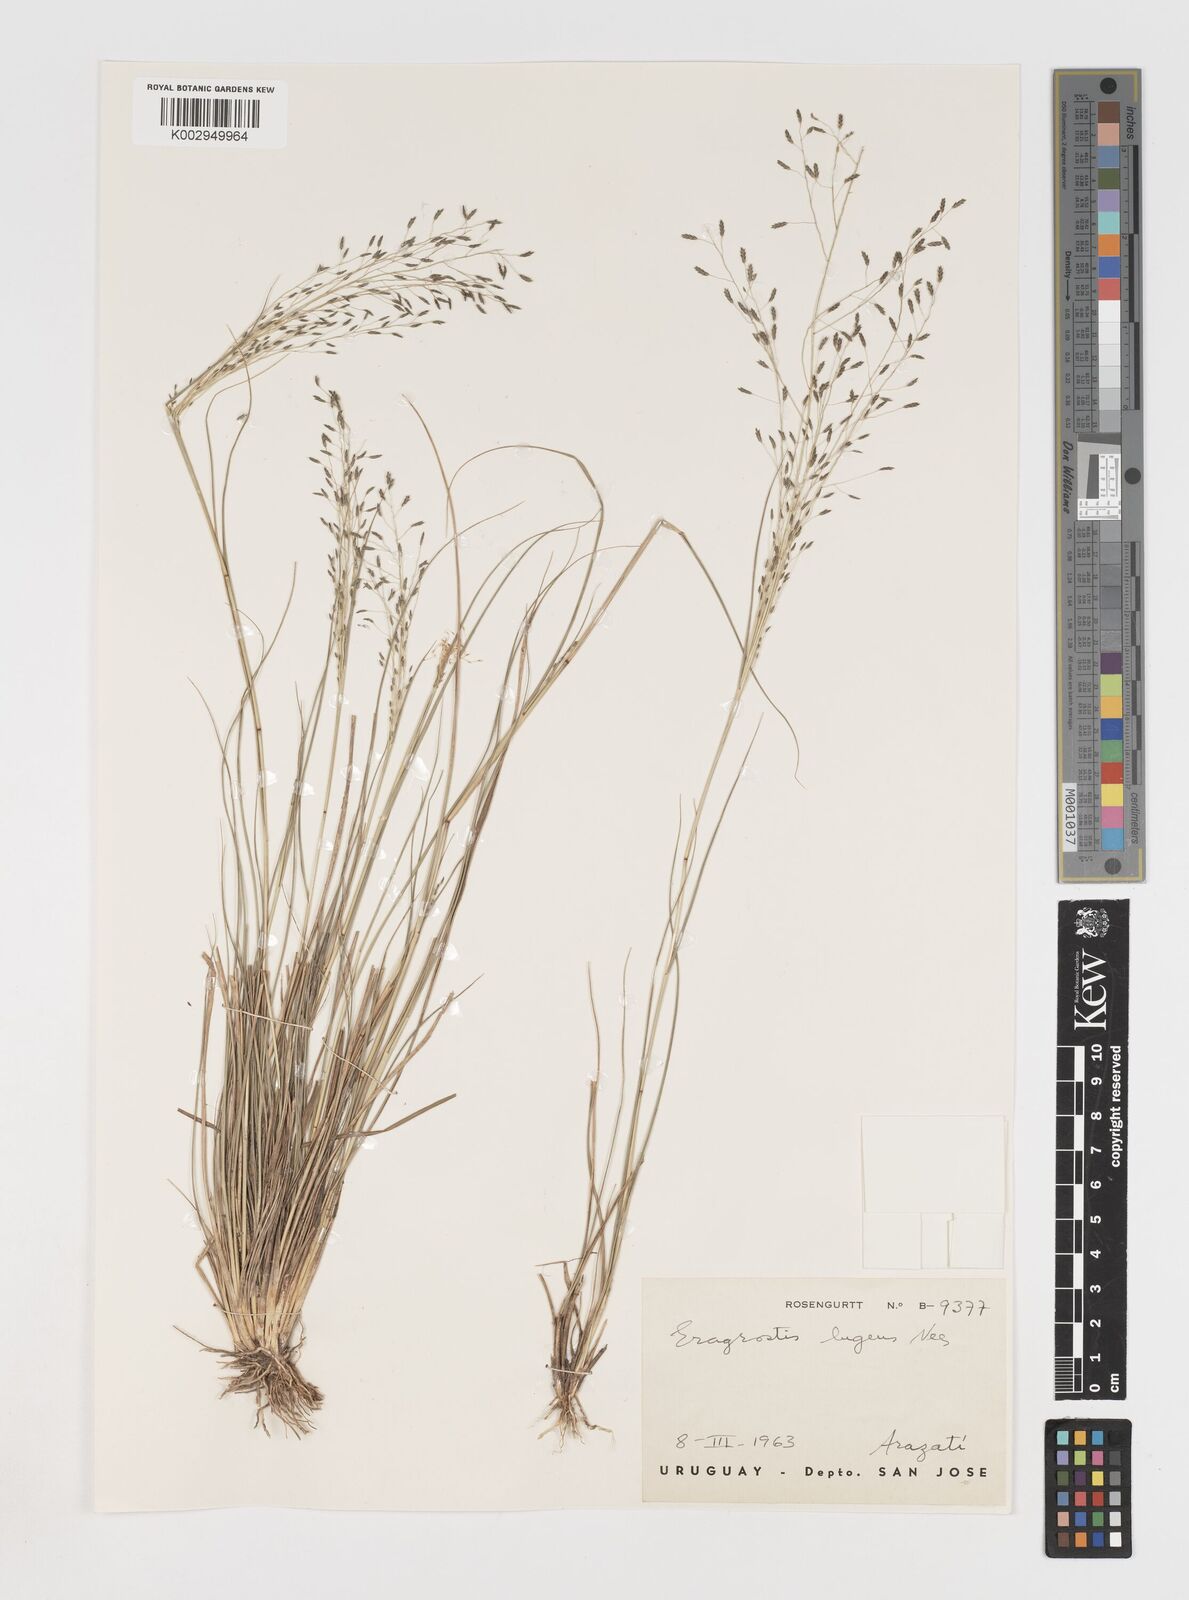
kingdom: Plantae
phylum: Tracheophyta
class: Liliopsida
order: Poales
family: Poaceae
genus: Eragrostis
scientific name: Eragrostis
